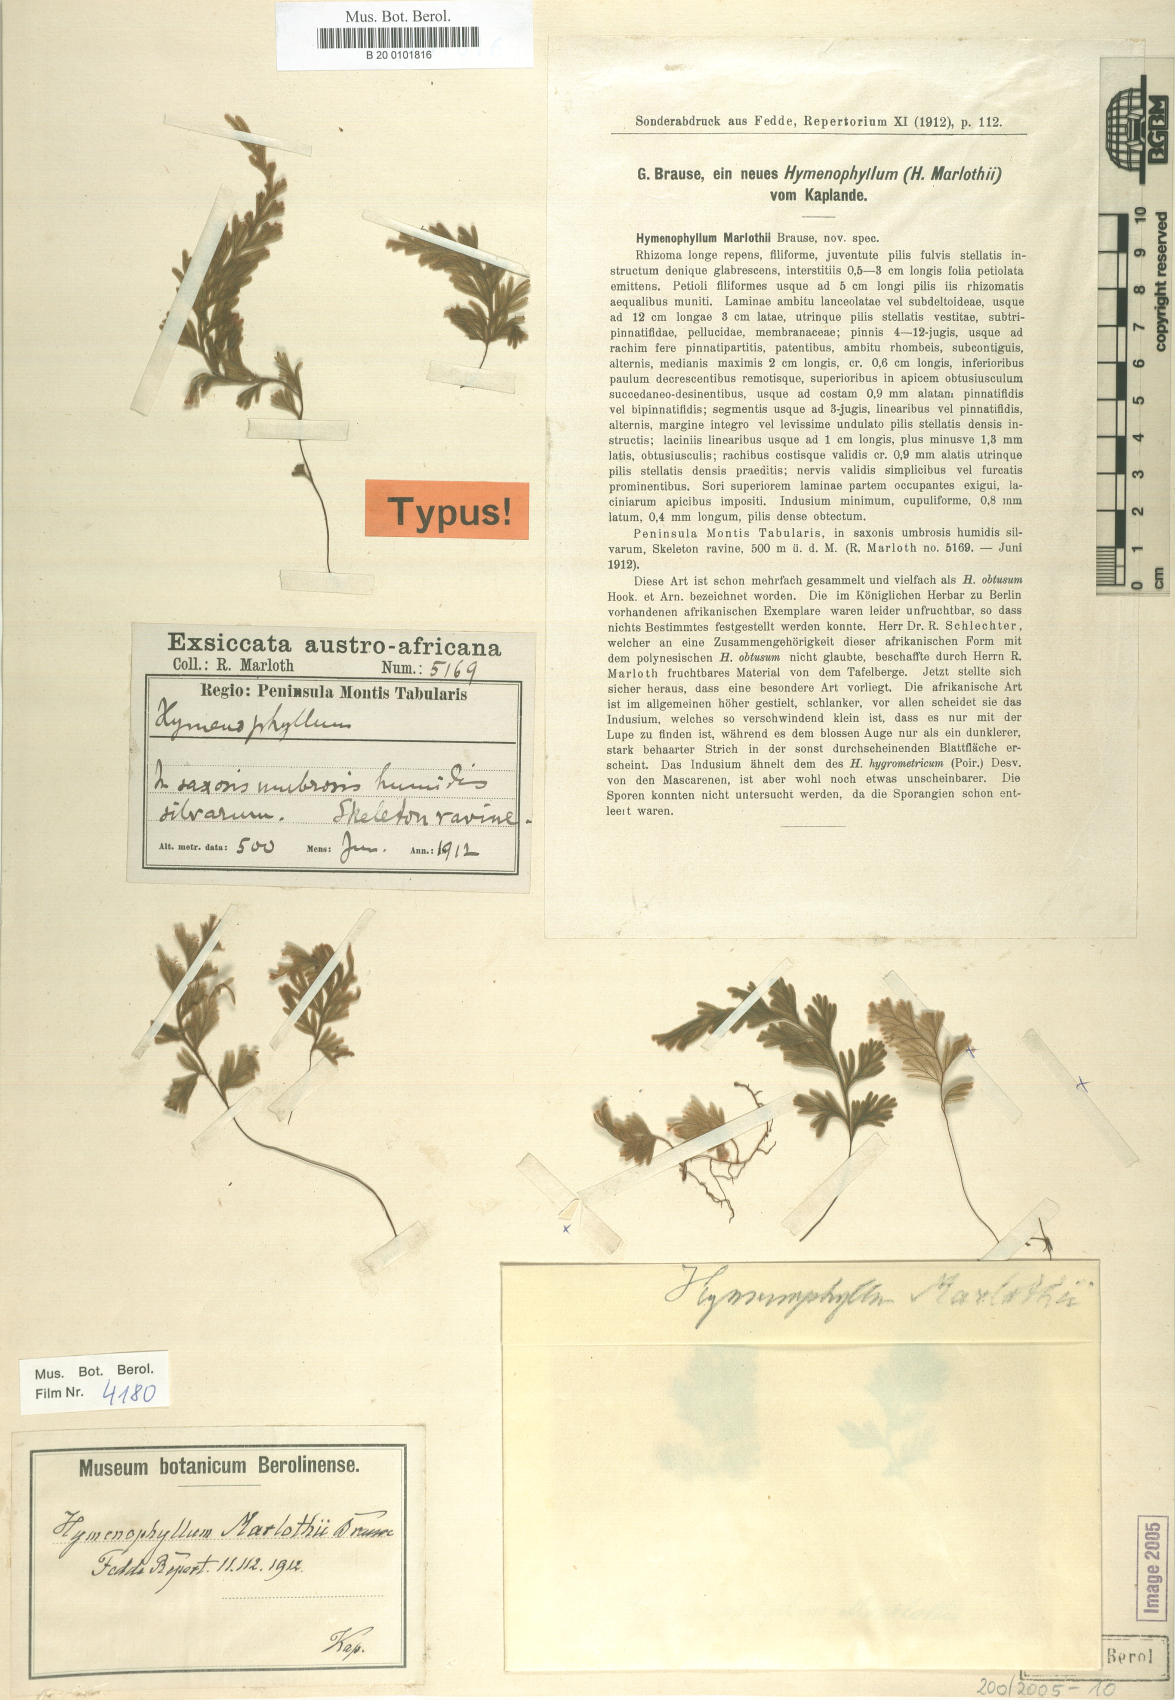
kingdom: Plantae
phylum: Tracheophyta
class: Polypodiopsida
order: Hymenophyllales
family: Hymenophyllaceae
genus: Hymenophyllum
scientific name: Hymenophyllum aeruginosum
